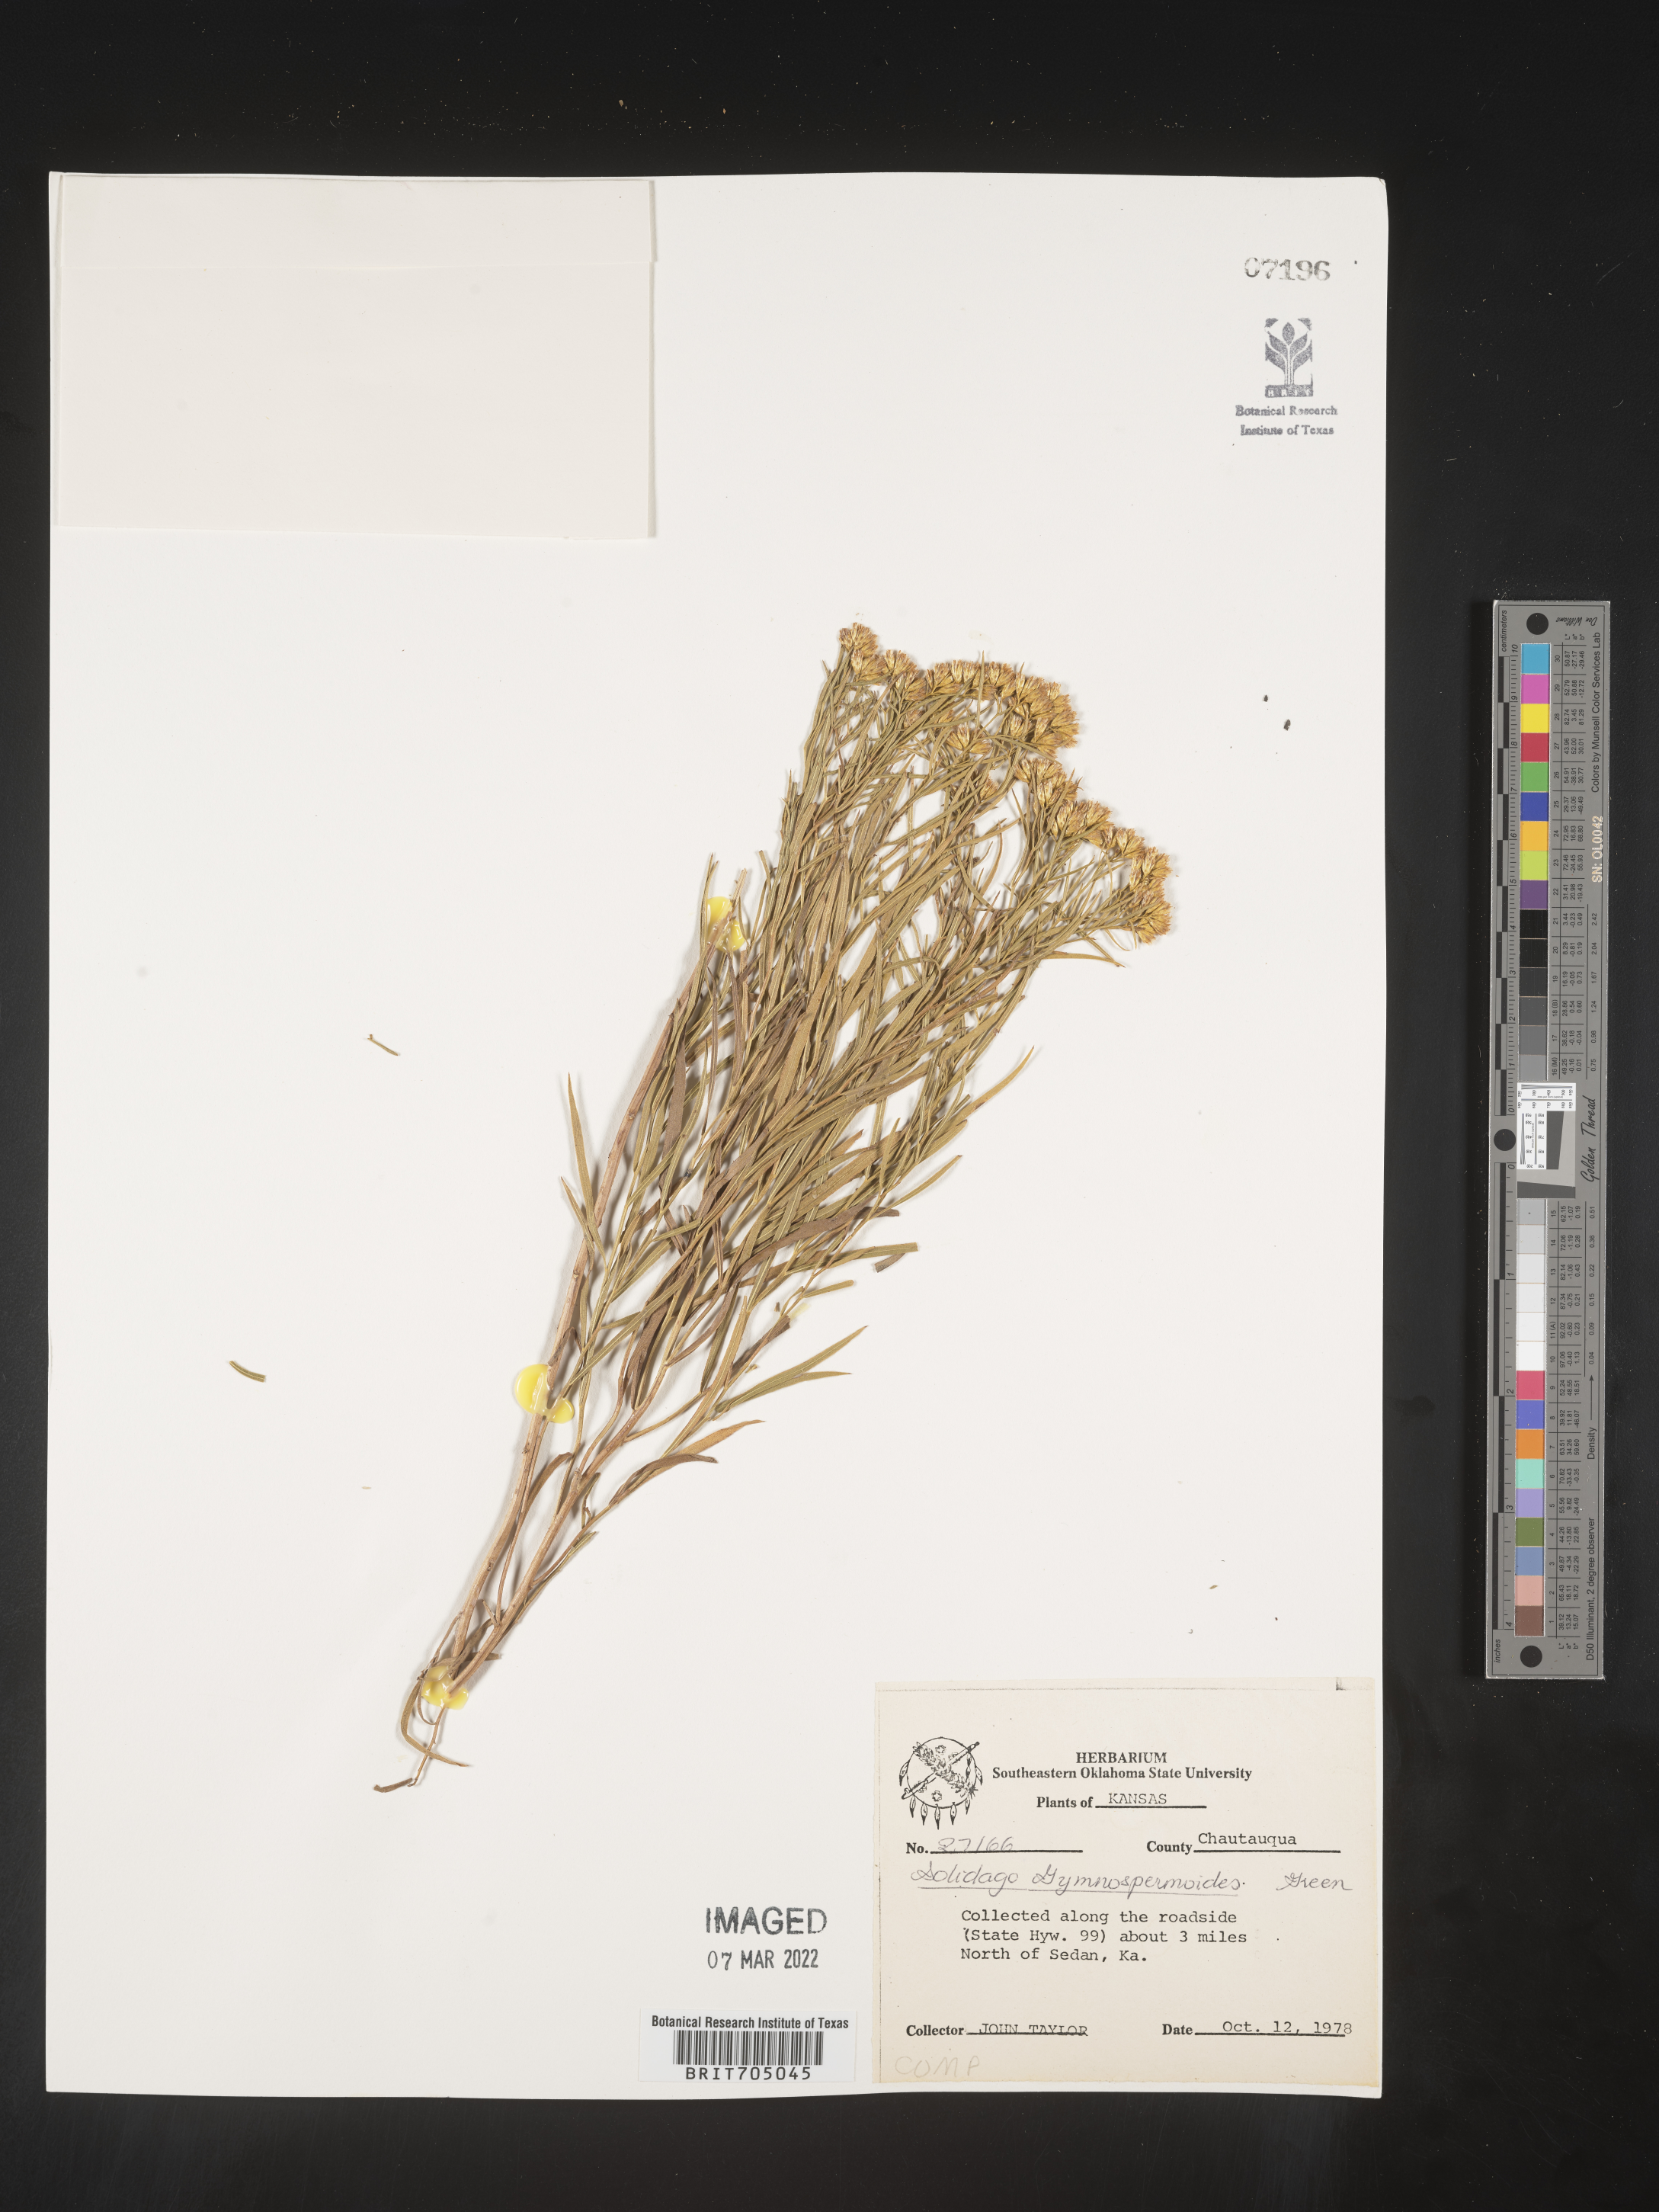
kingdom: Plantae
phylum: Tracheophyta
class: Magnoliopsida
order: Asterales
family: Asteraceae
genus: Euthamia
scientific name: Euthamia gymnospermoides
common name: Great plains goldentop
